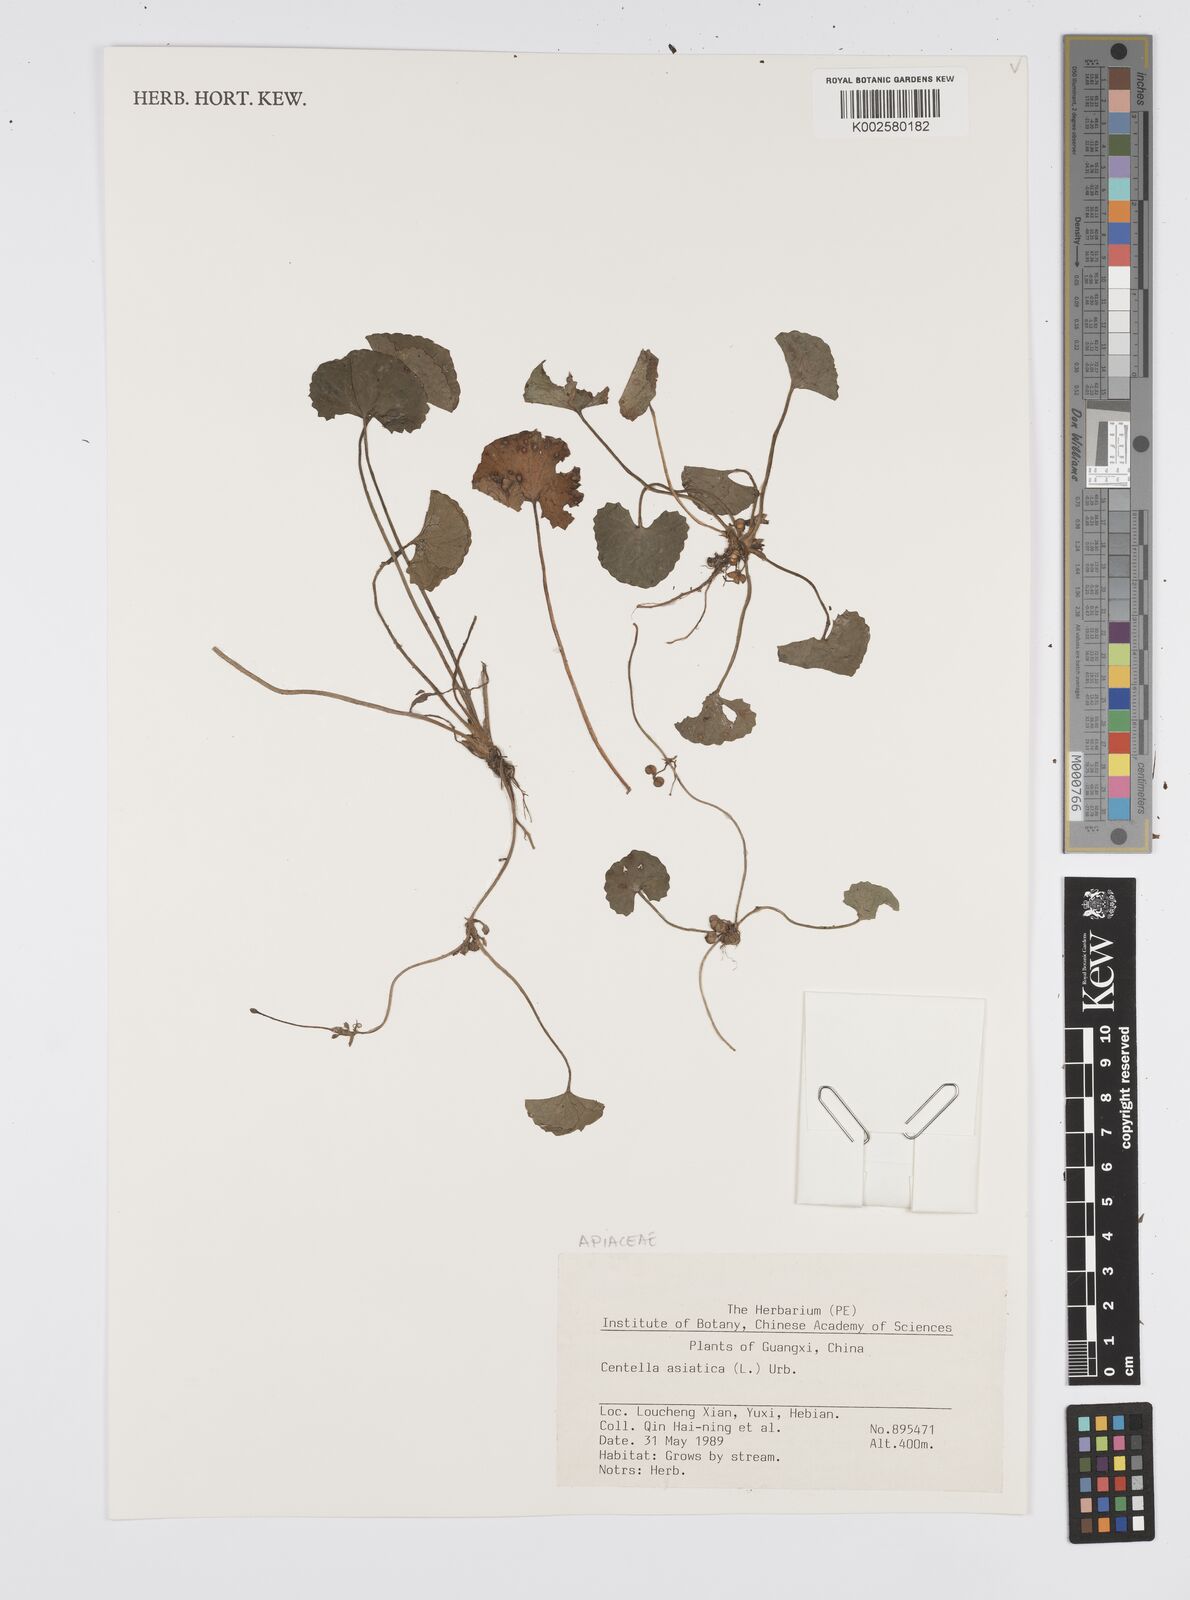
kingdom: Plantae
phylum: Tracheophyta
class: Magnoliopsida
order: Apiales
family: Apiaceae
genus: Centella
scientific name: Centella asiatica
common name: Spadeleaf
